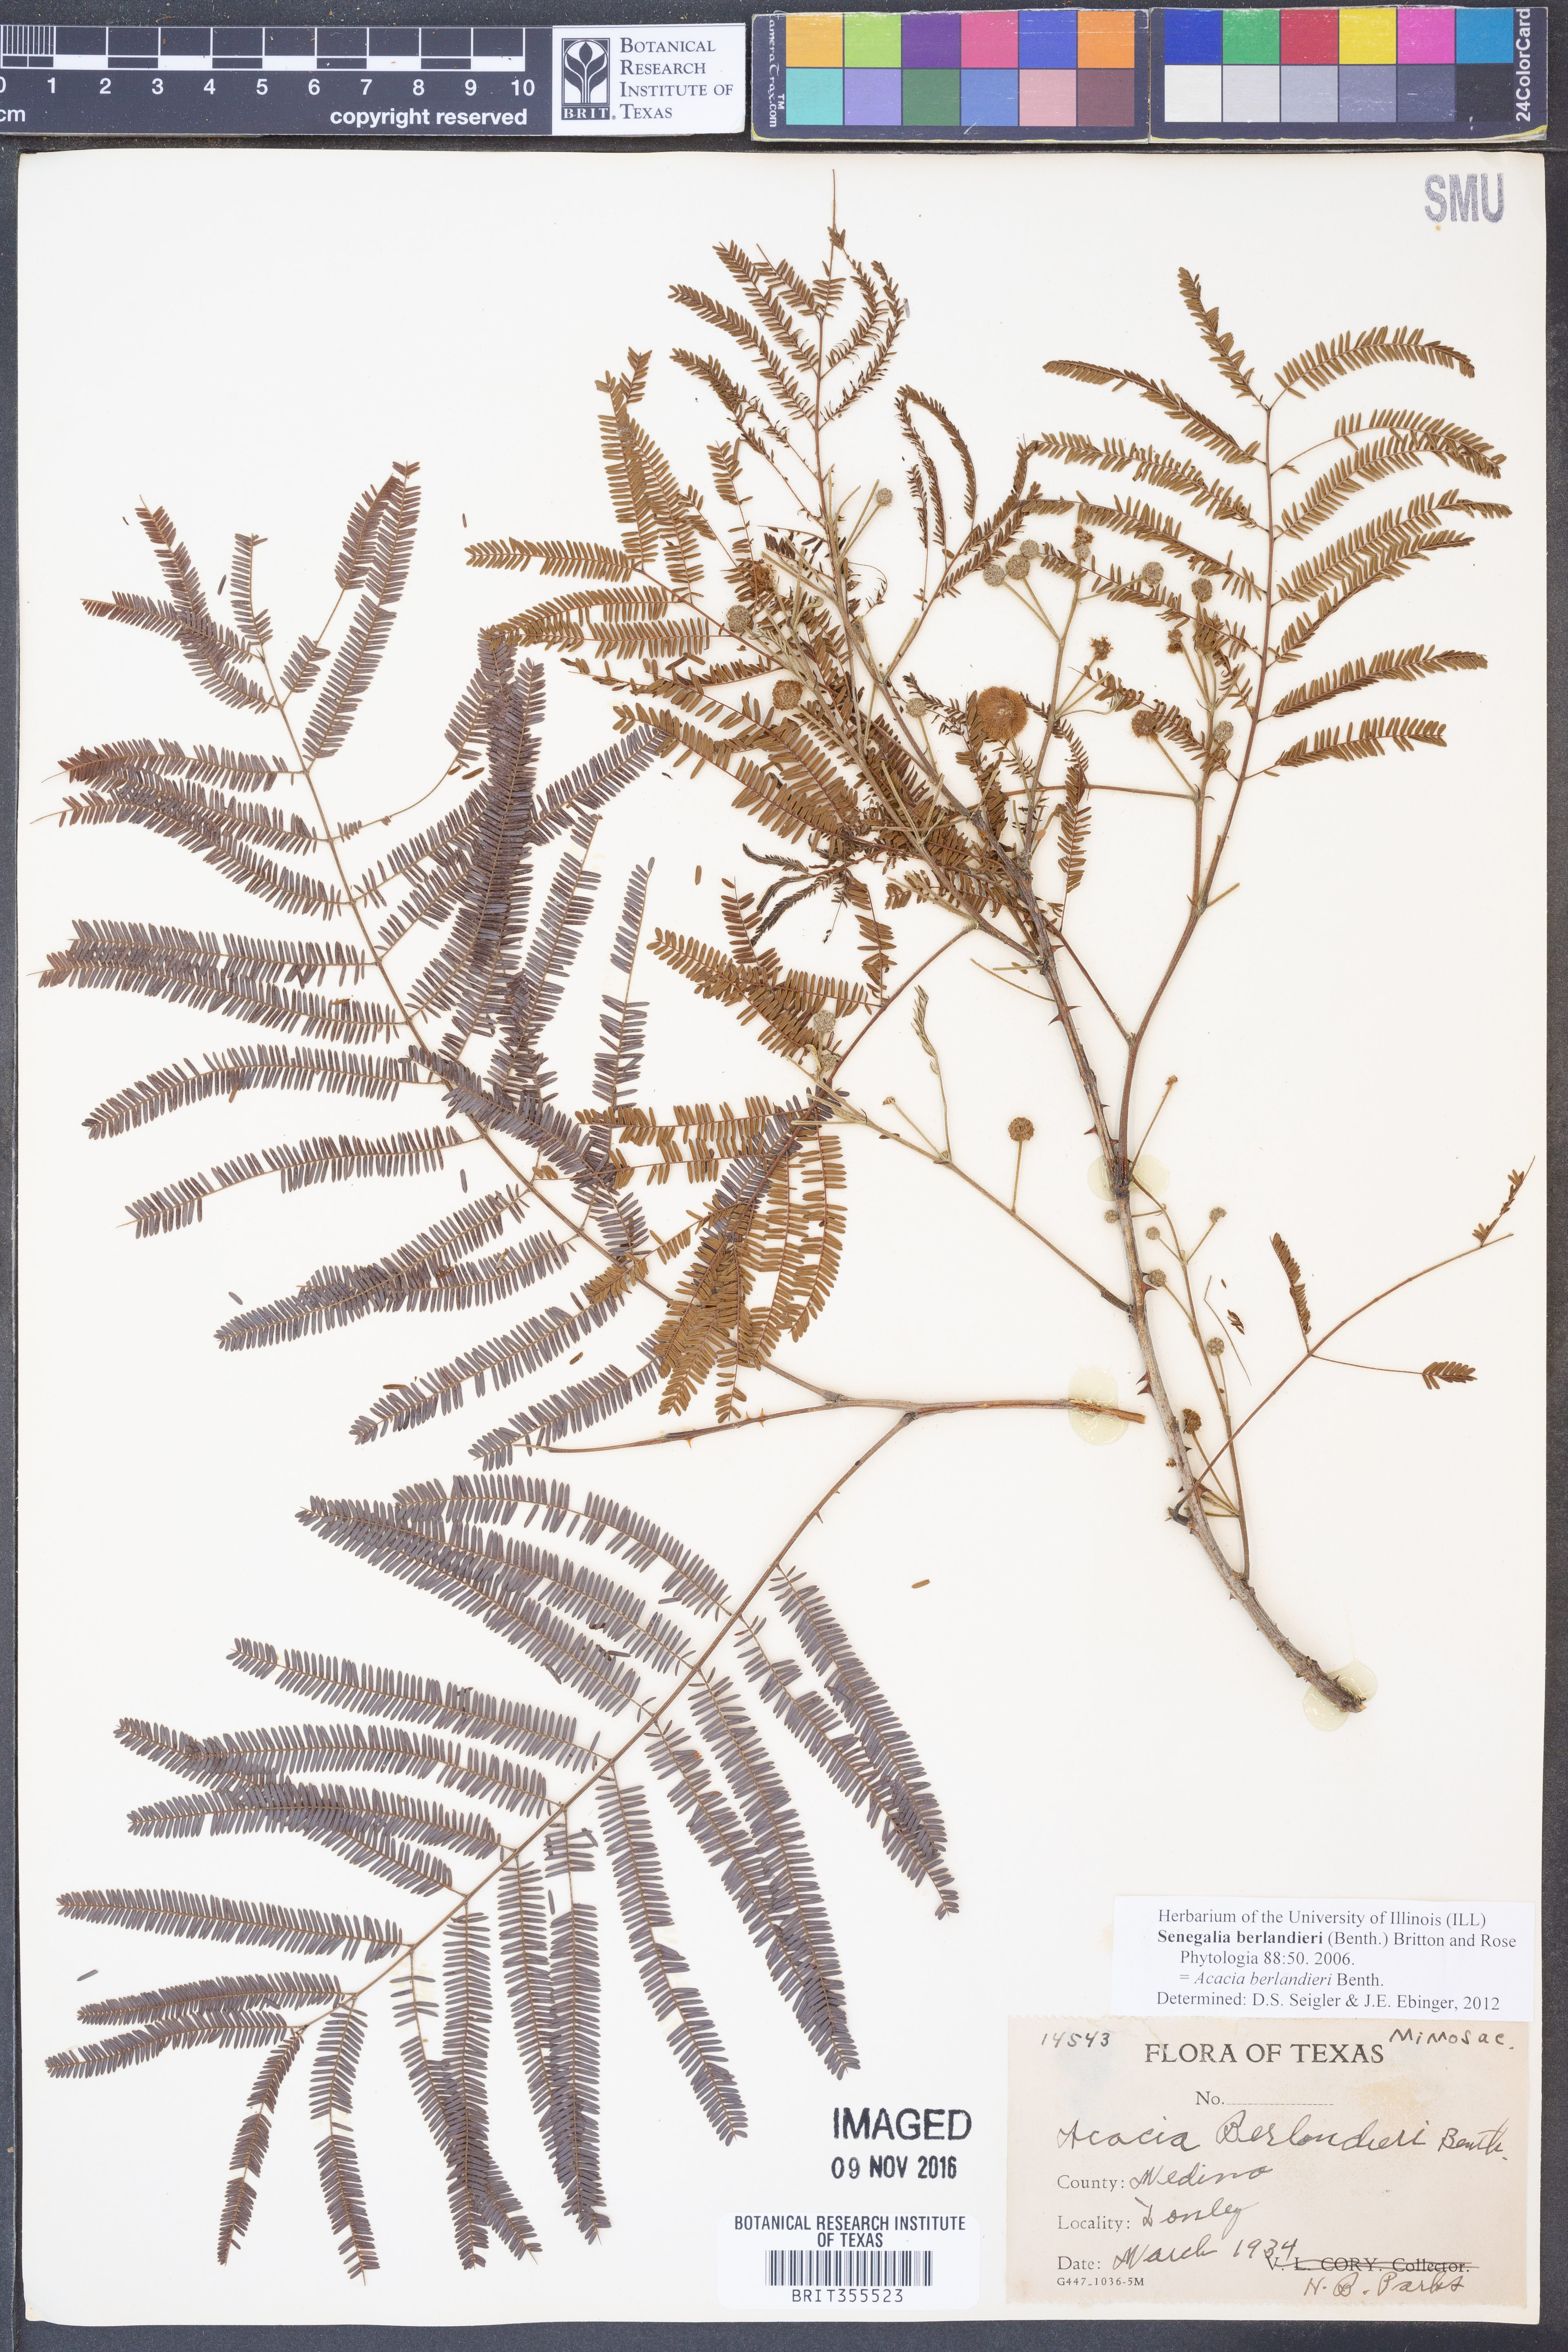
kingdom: Plantae
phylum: Tracheophyta
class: Magnoliopsida
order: Fabales
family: Fabaceae
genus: Senegalia
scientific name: Senegalia berlandieri
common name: Berlandier acacia
